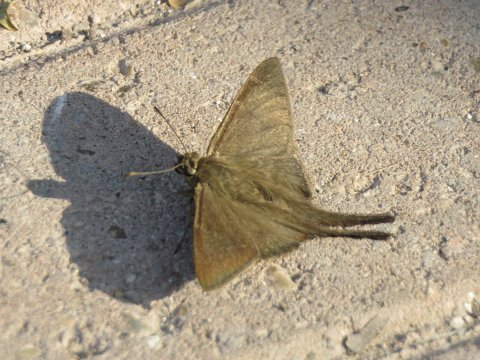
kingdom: Animalia
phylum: Arthropoda
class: Insecta
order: Lepidoptera
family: Hesperiidae
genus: Urbanus
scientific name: Urbanus procne
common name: Brown Longtail
